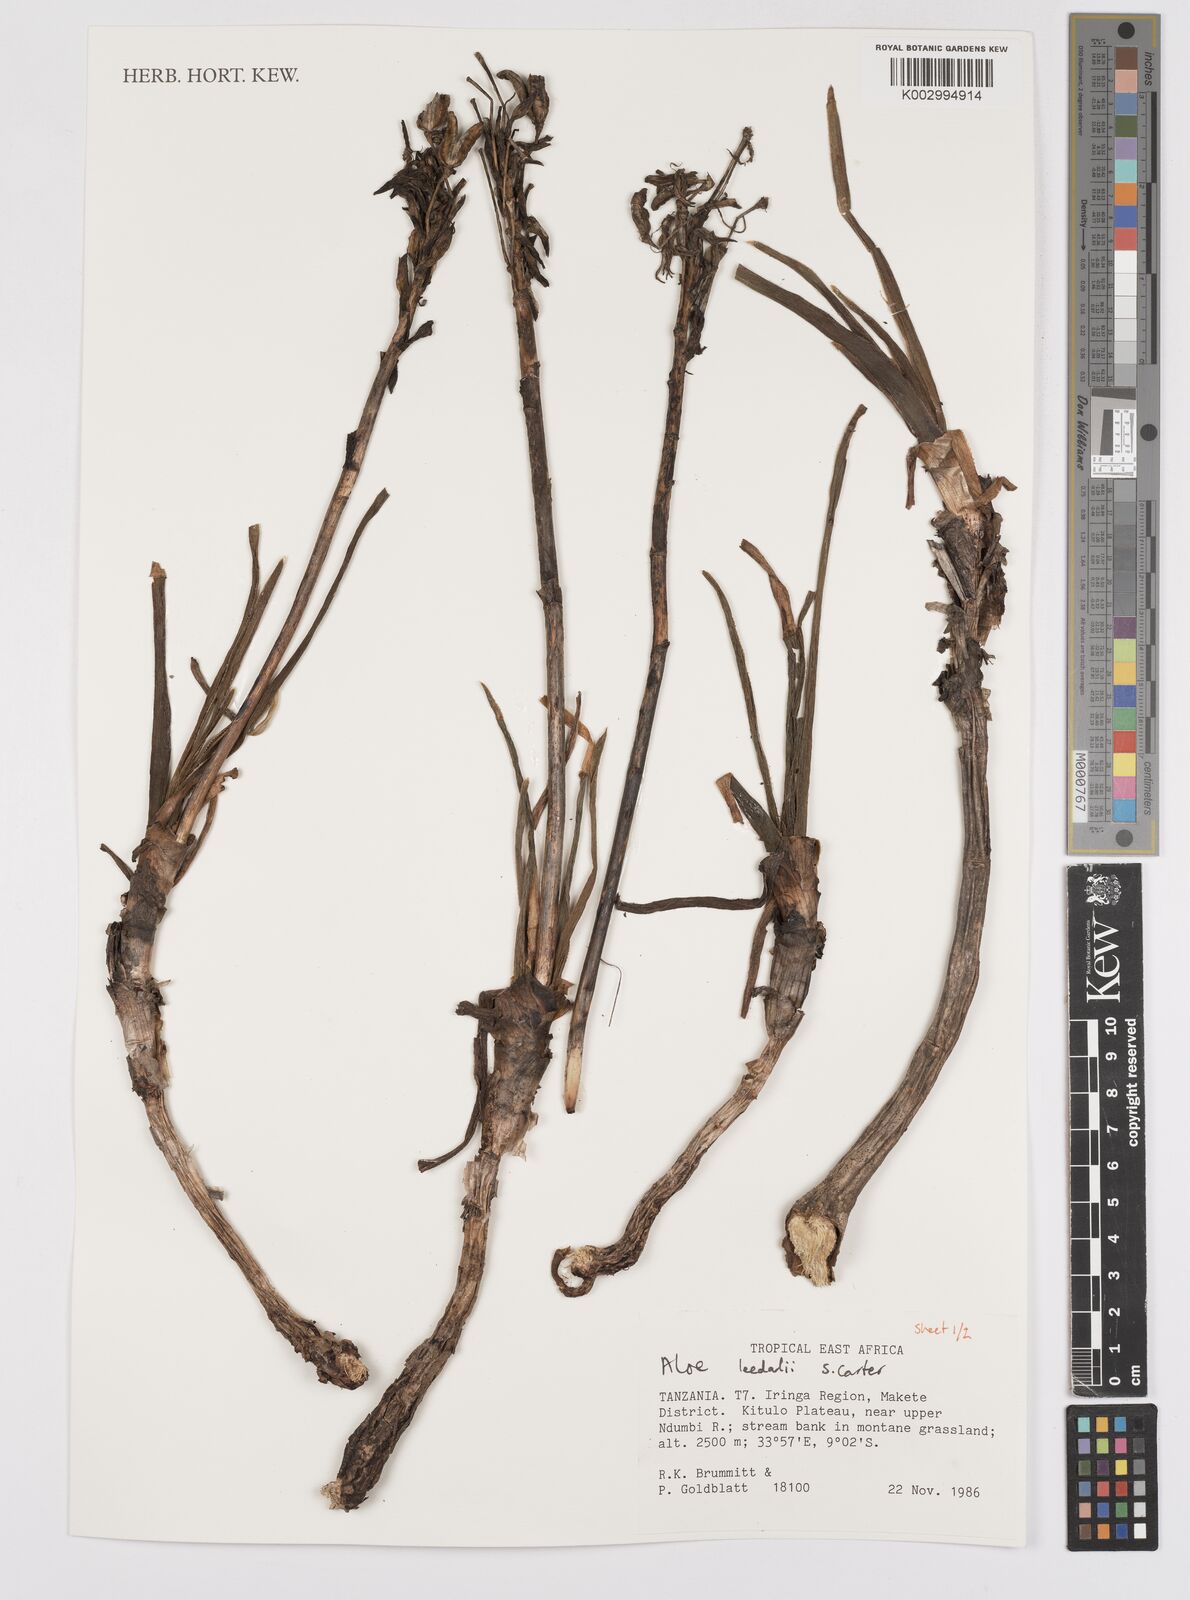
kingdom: Plantae
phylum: Tracheophyta
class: Liliopsida
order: Asparagales
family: Asphodelaceae
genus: Aloe
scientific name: Aloe leedalii
